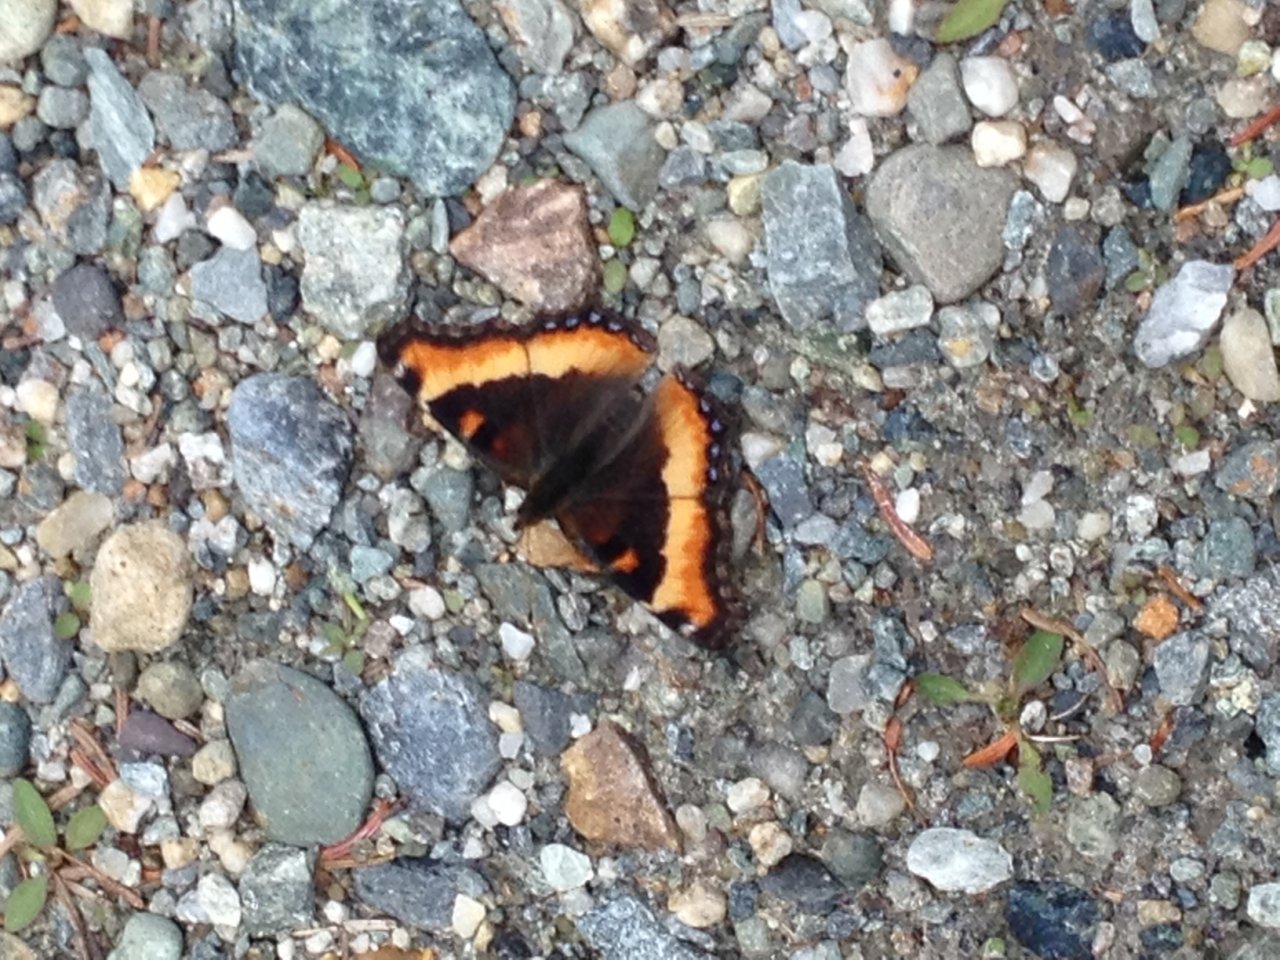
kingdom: Animalia
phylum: Arthropoda
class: Insecta
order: Lepidoptera
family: Nymphalidae
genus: Aglais
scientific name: Aglais milberti
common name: Milbert's Tortoiseshell
